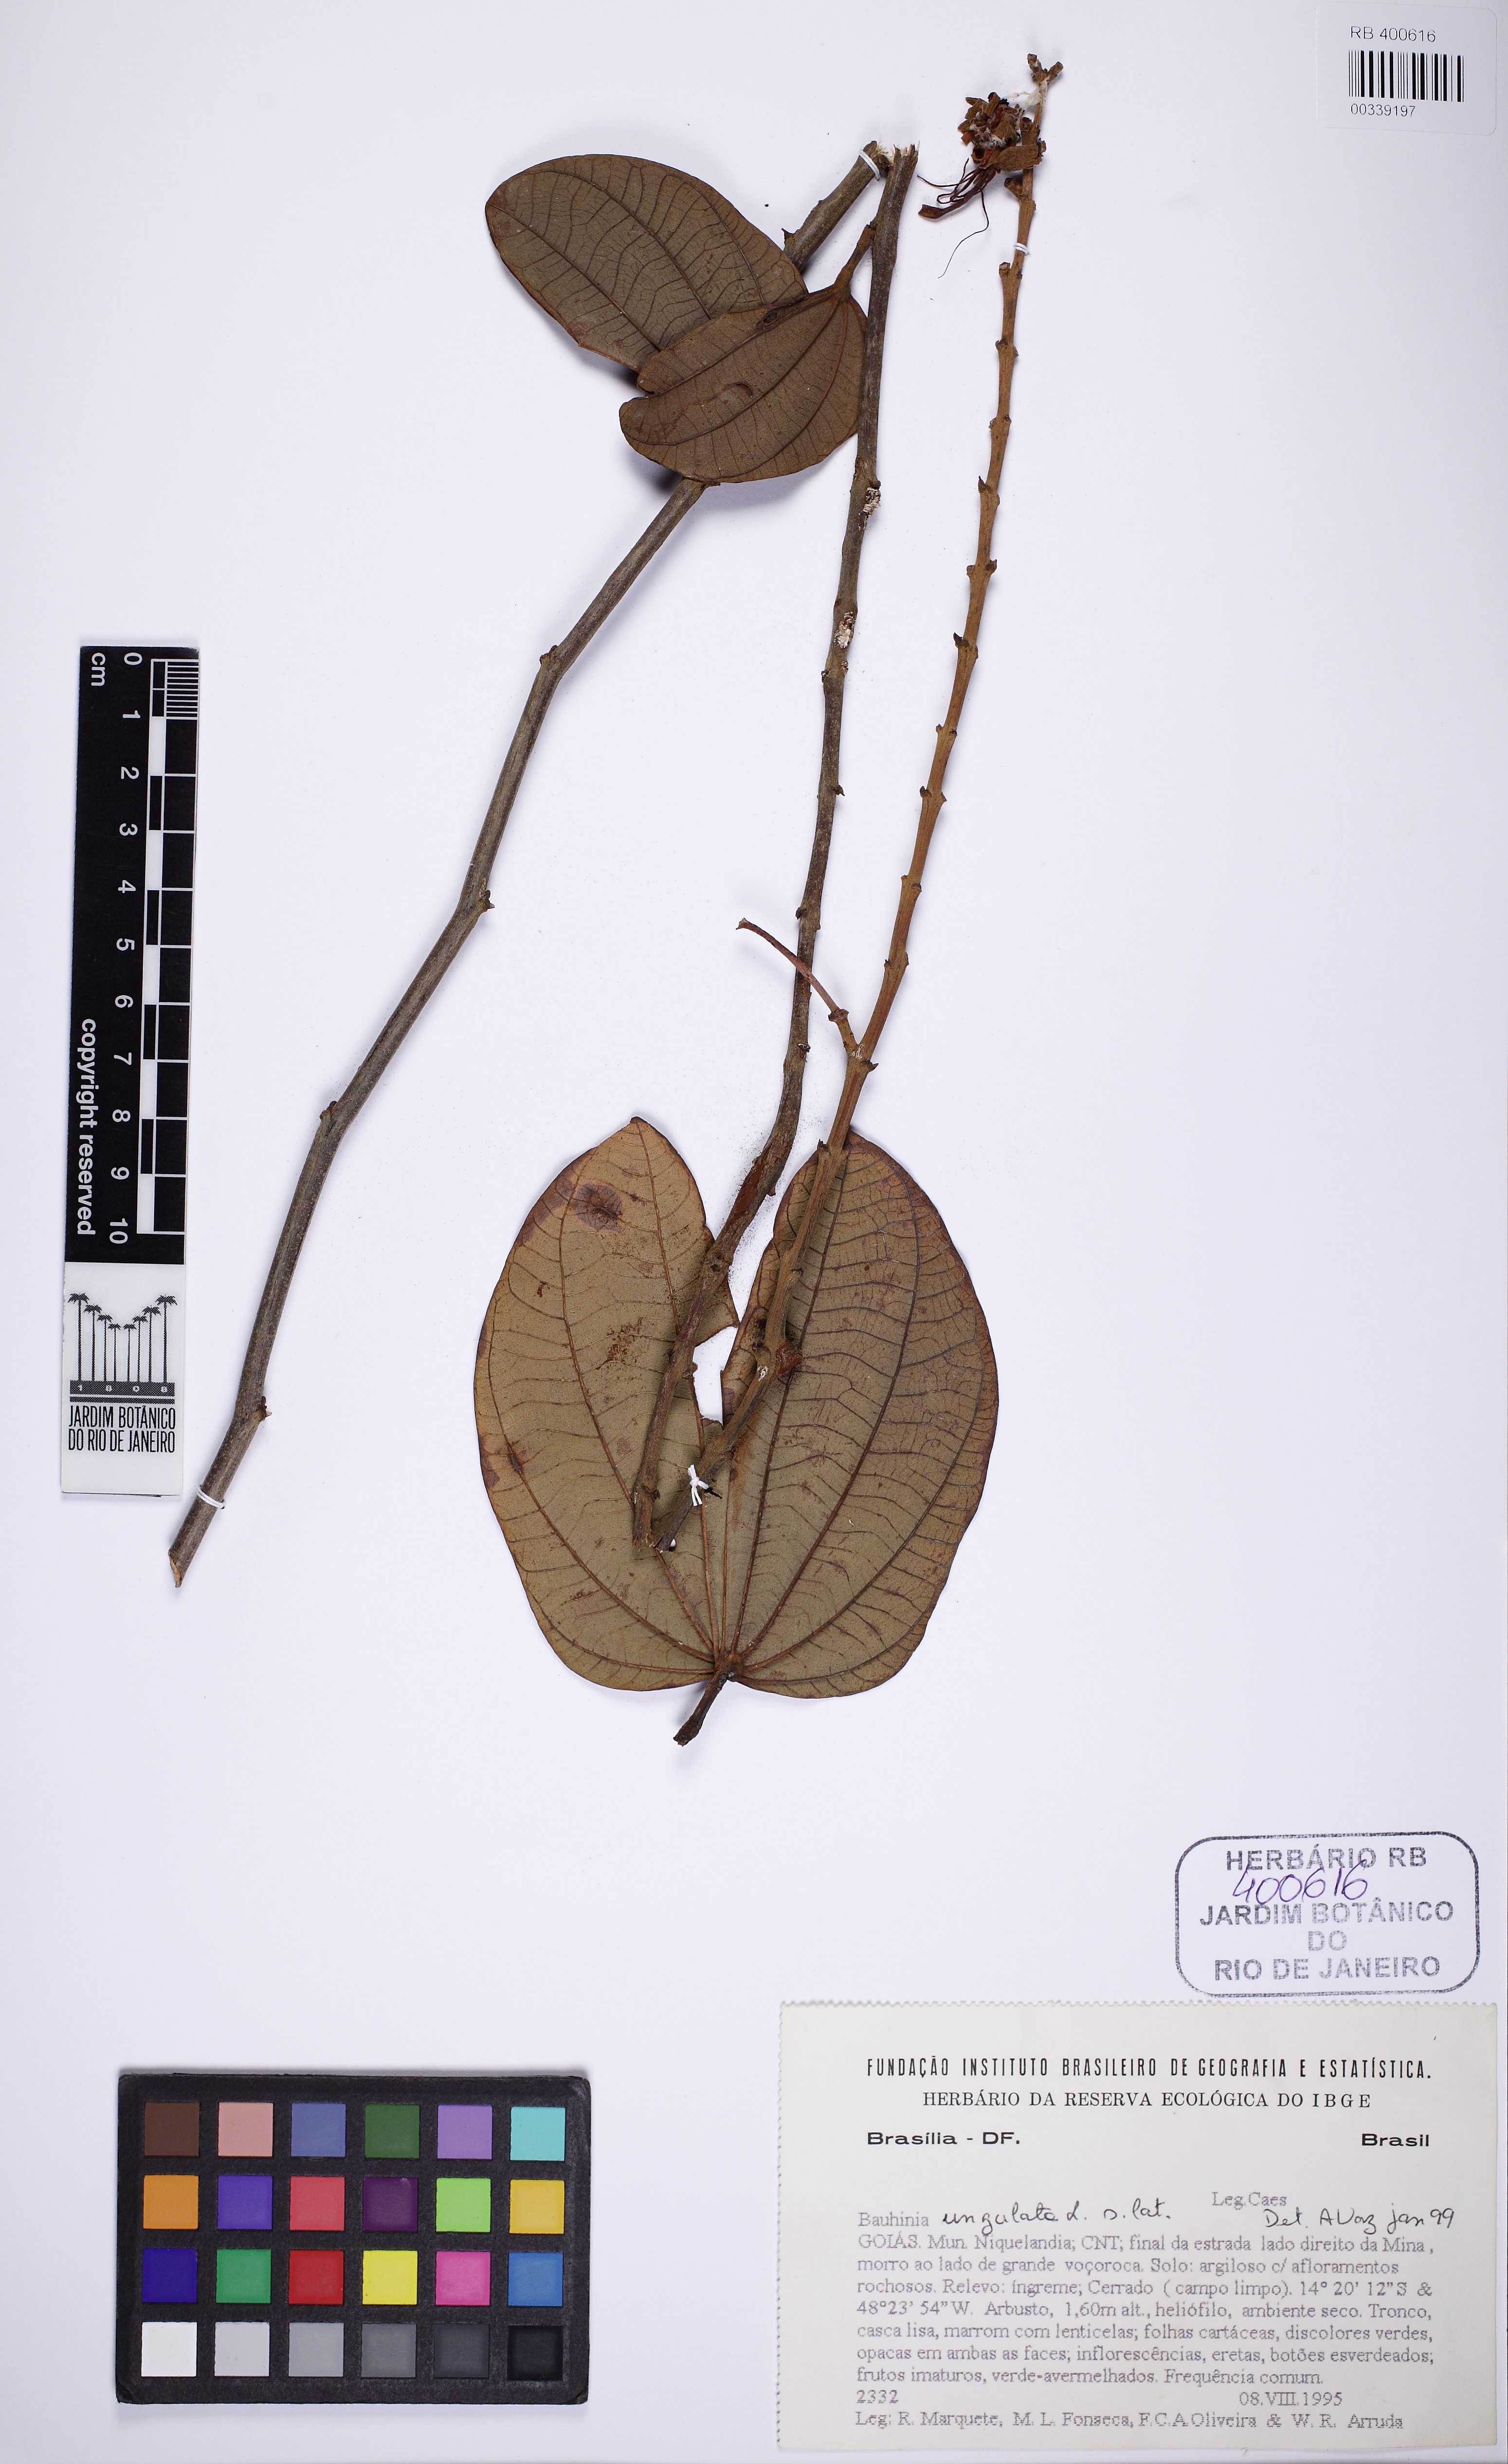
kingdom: Plantae
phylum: Tracheophyta
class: Magnoliopsida
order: Fabales
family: Fabaceae
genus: Bauhinia
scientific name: Bauhinia ungulata
